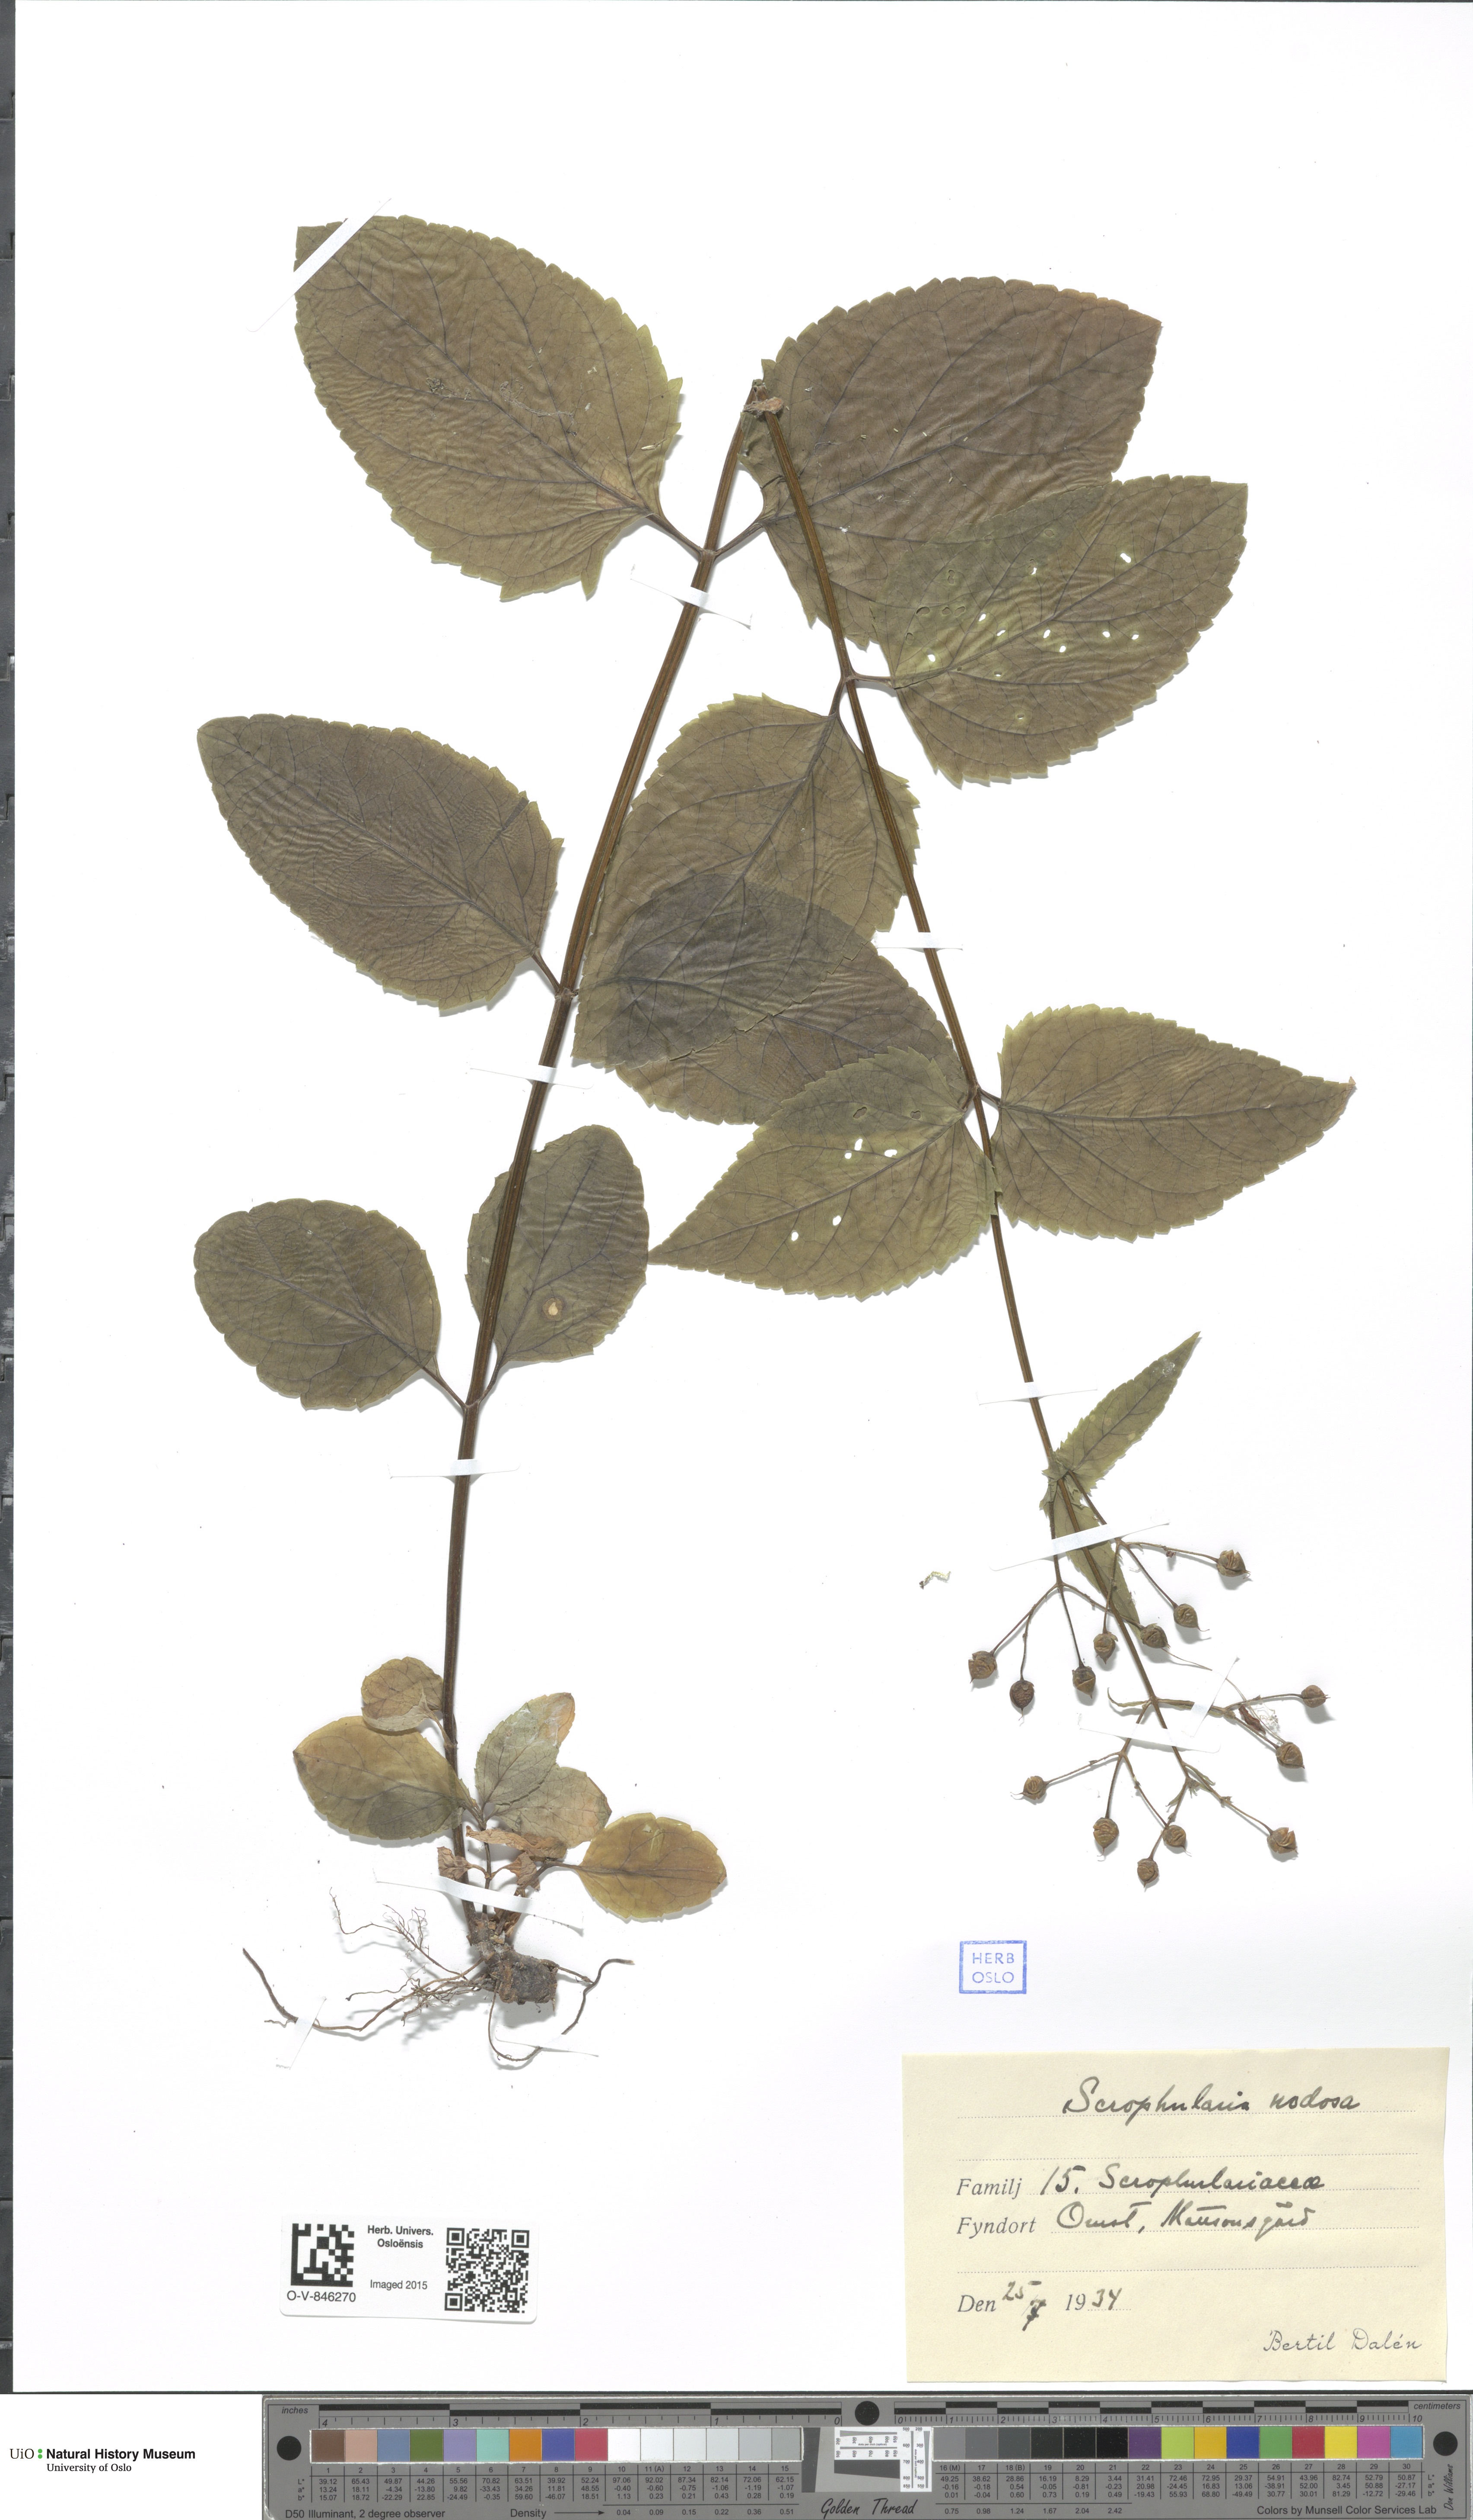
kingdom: Plantae
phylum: Tracheophyta
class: Magnoliopsida
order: Lamiales
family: Scrophulariaceae
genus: Scrophularia
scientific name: Scrophularia nodosa
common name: Common figwort
